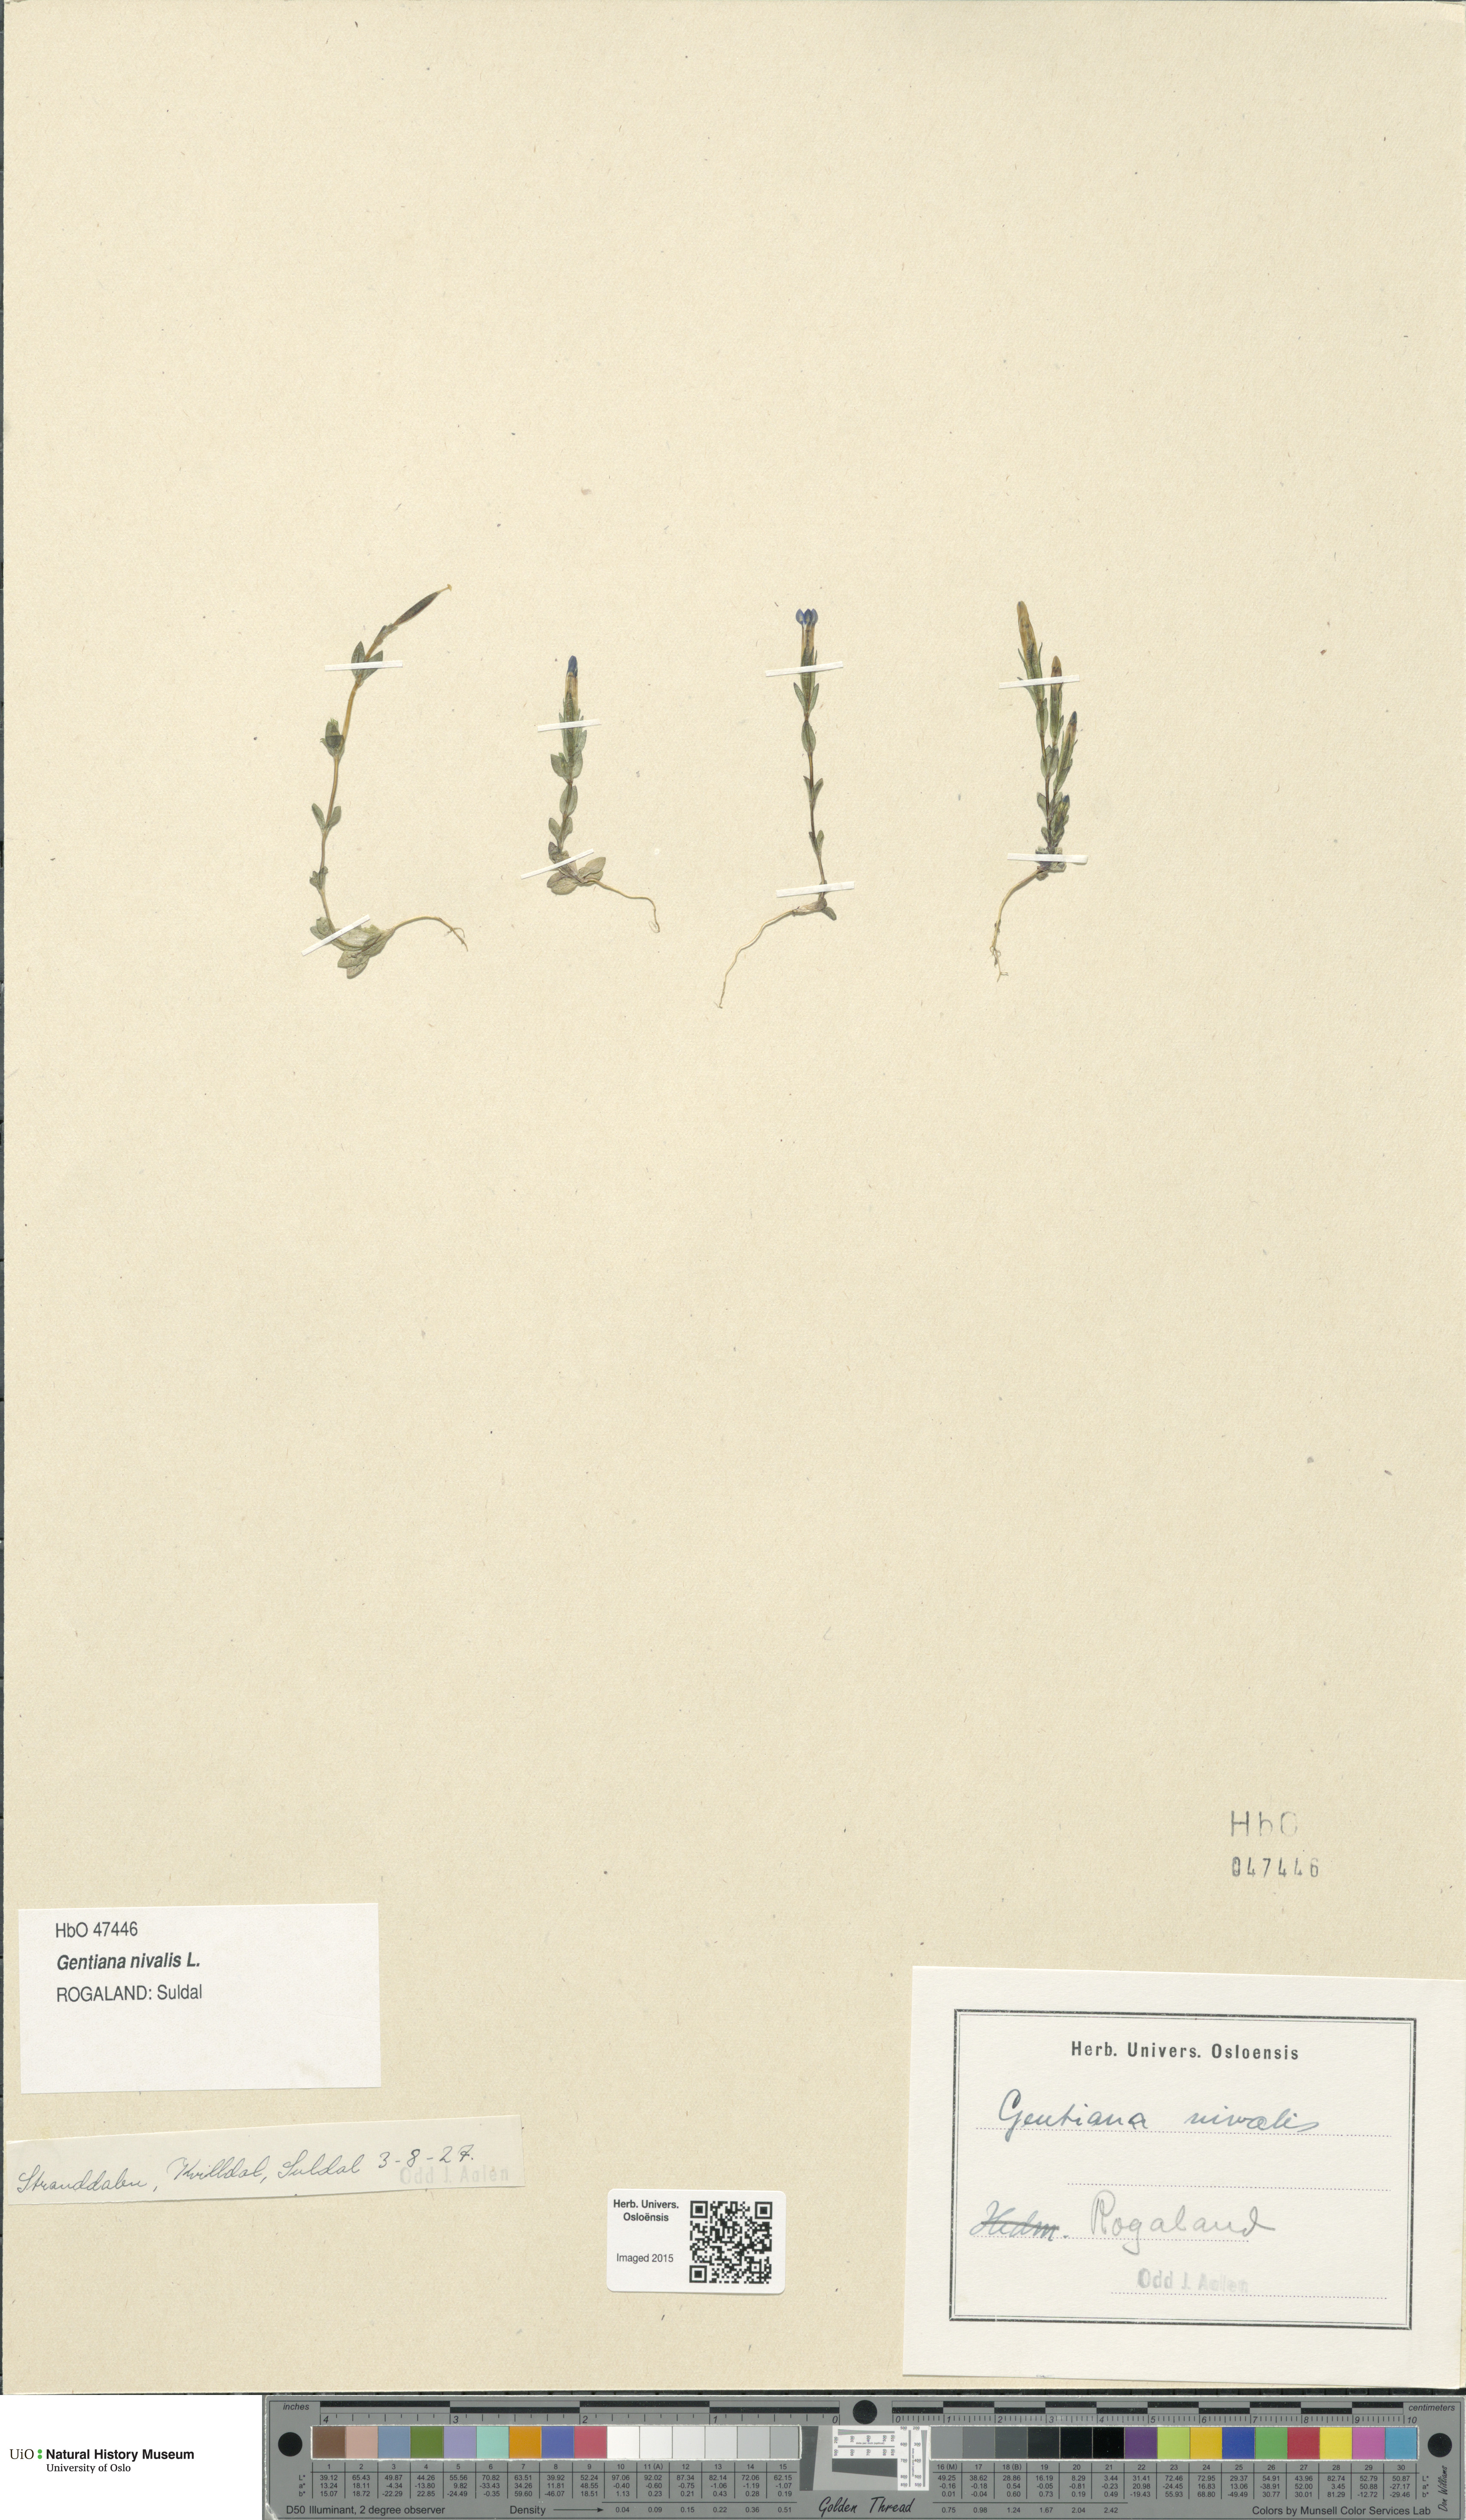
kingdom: Plantae
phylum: Tracheophyta
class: Magnoliopsida
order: Gentianales
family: Gentianaceae
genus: Gentiana
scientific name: Gentiana nivalis
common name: Alpine gentian
